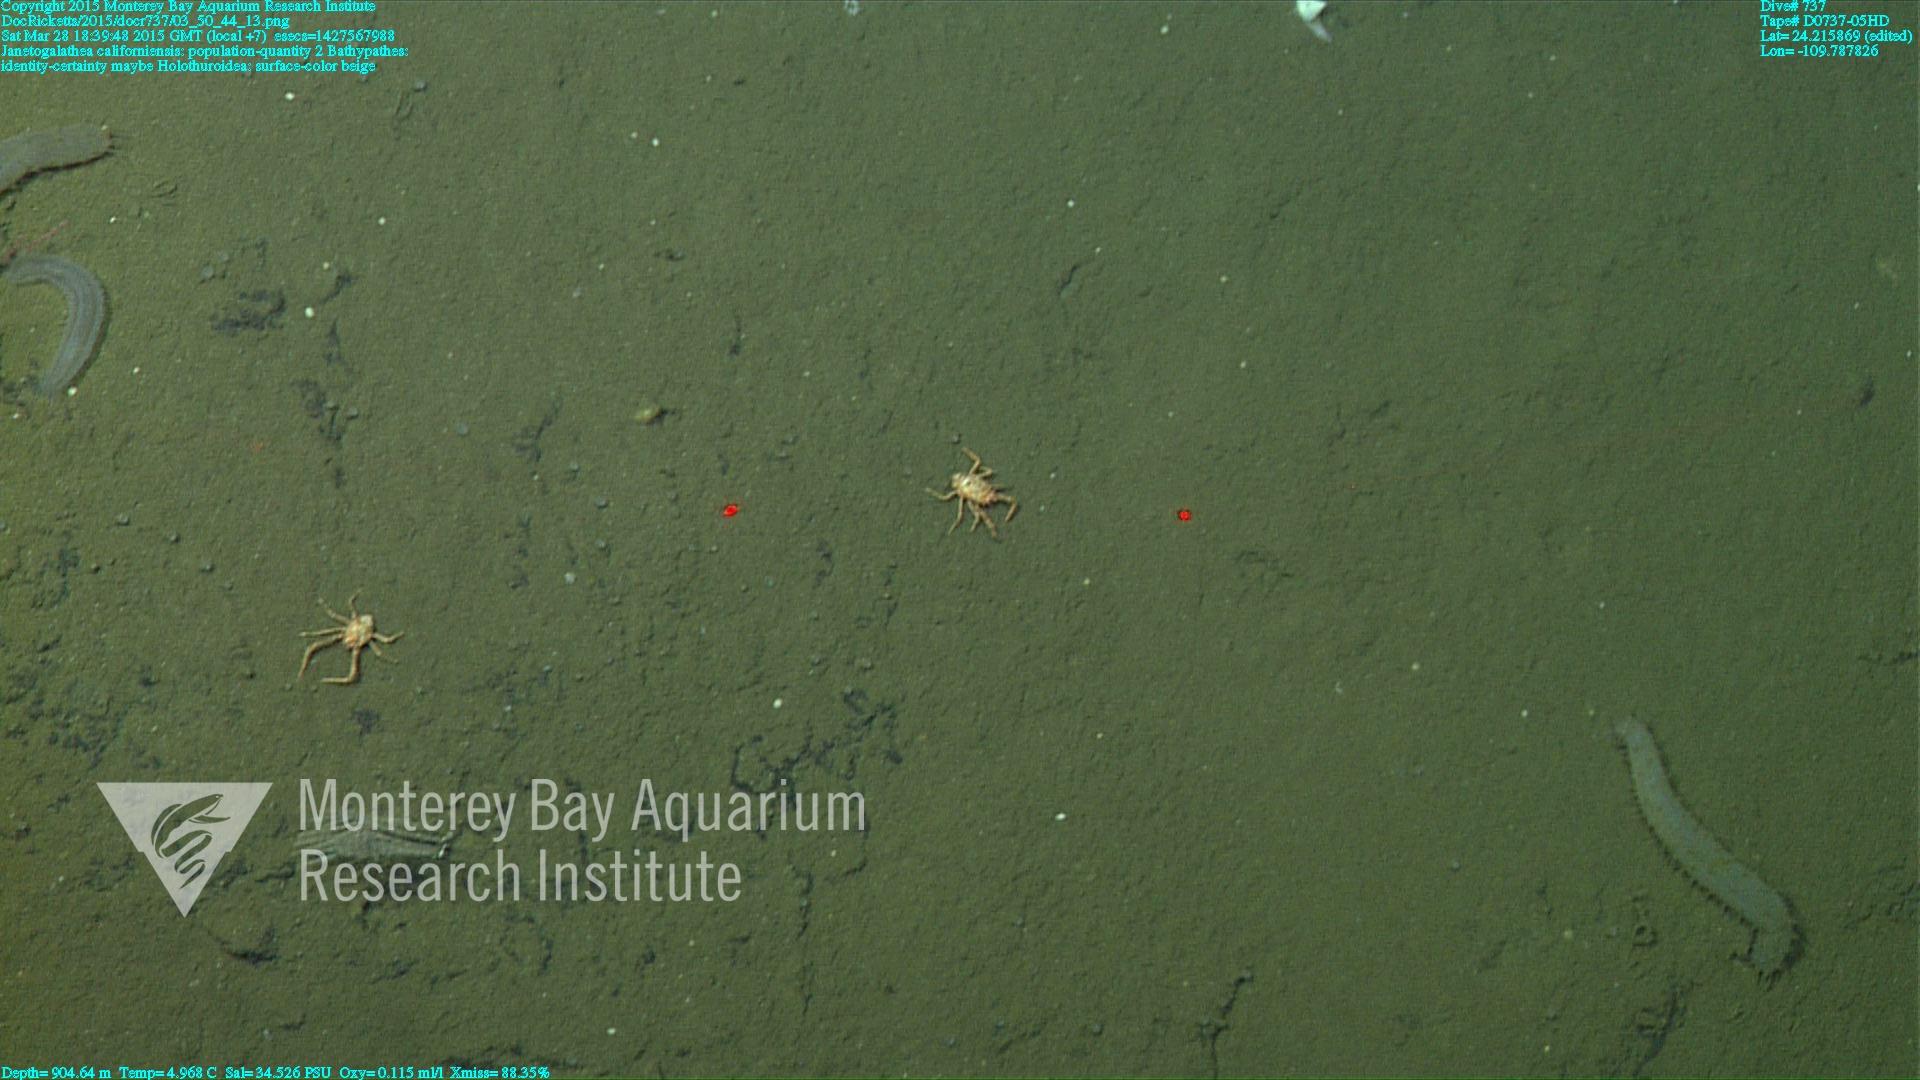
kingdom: Animalia
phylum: Cnidaria
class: Anthozoa
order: Antipatharia
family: Schizopathidae
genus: Bathypathes
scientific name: Bathypathes
